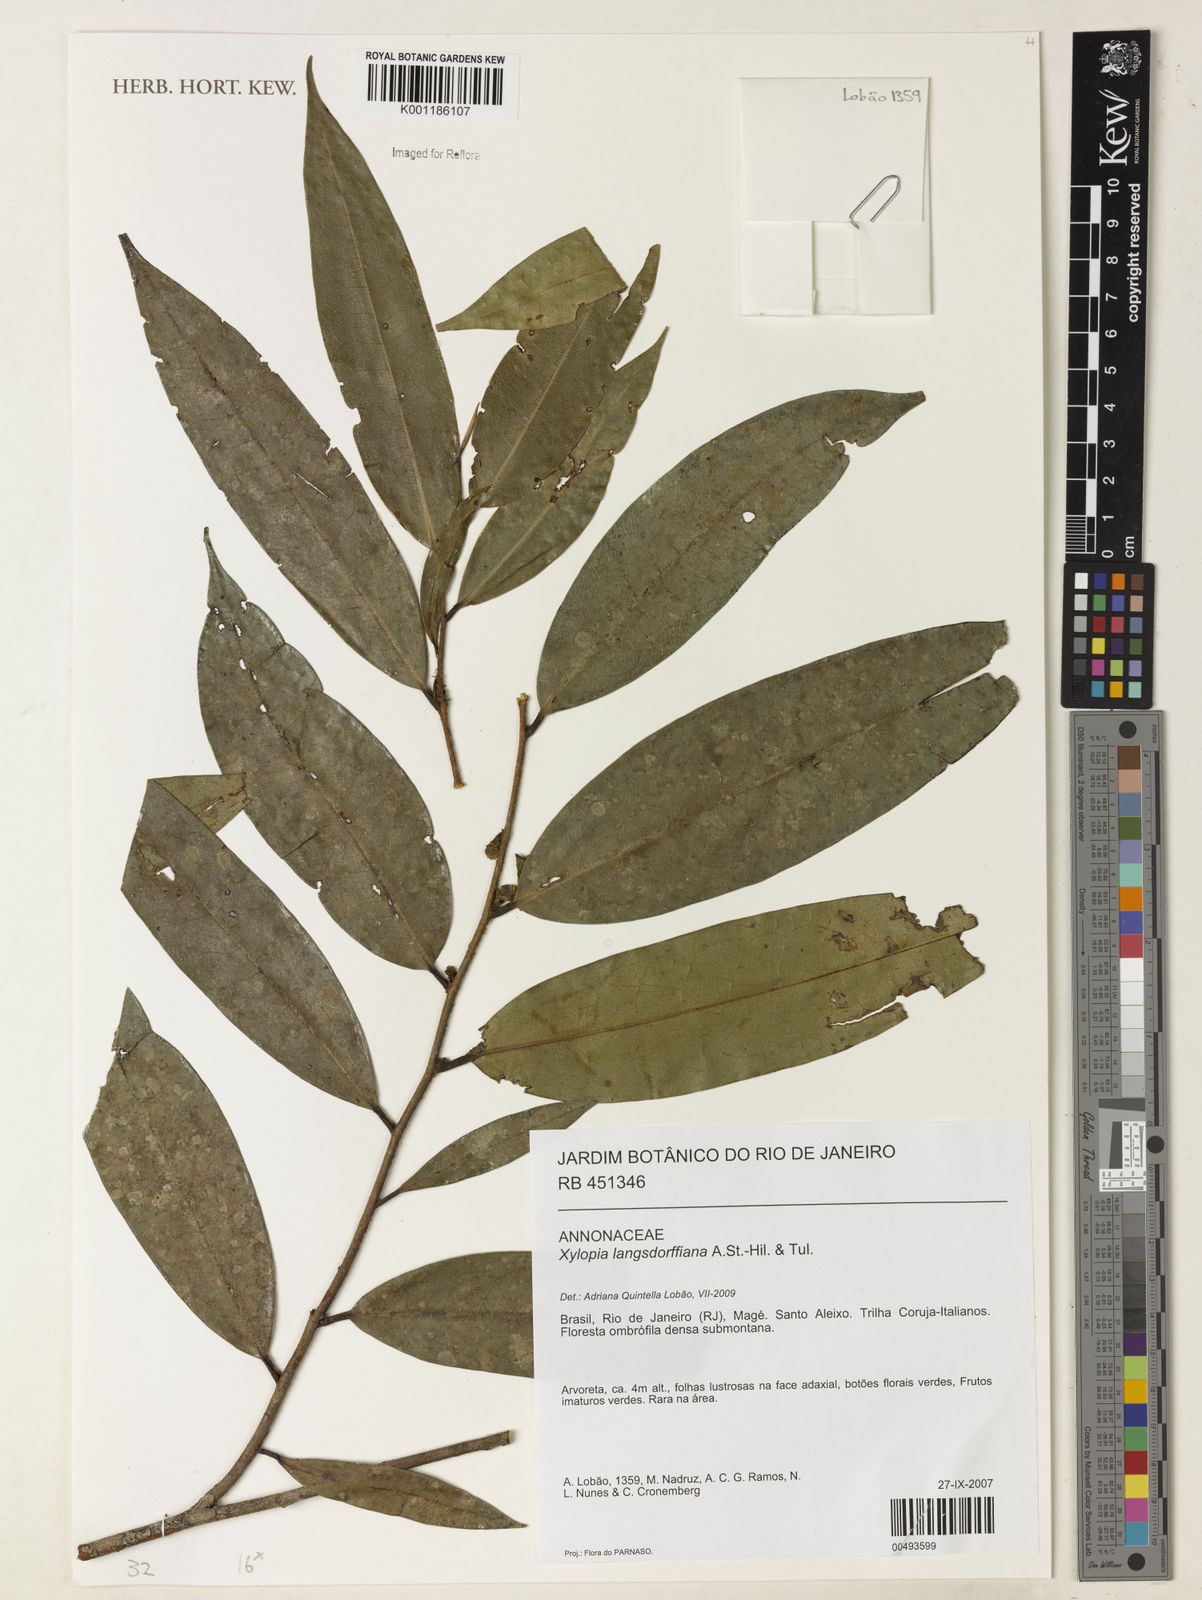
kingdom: Plantae
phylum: Tracheophyta
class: Magnoliopsida
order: Magnoliales
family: Annonaceae
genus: Xylopia
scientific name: Xylopia langsdorfiana
